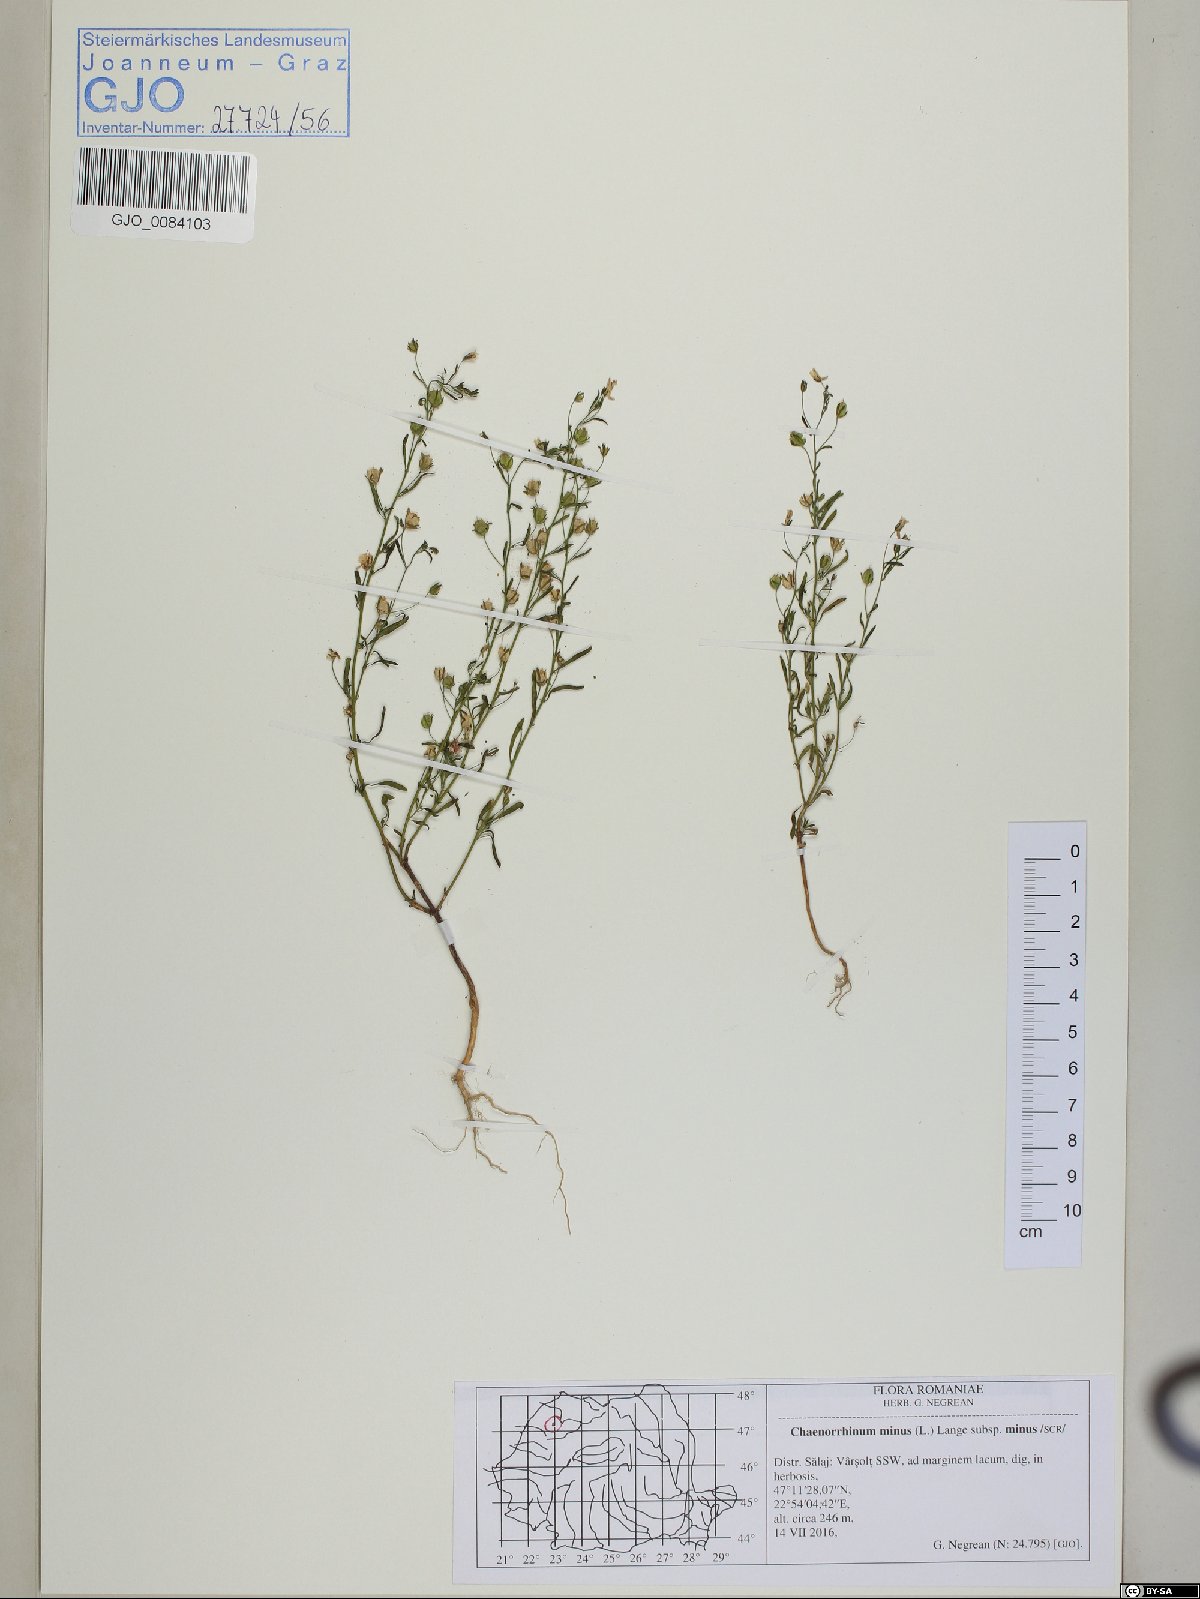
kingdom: Plantae
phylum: Tracheophyta
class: Magnoliopsida
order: Lamiales
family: Plantaginaceae
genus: Chaenorhinum
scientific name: Chaenorhinum minus
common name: Dwarf snapdragon
